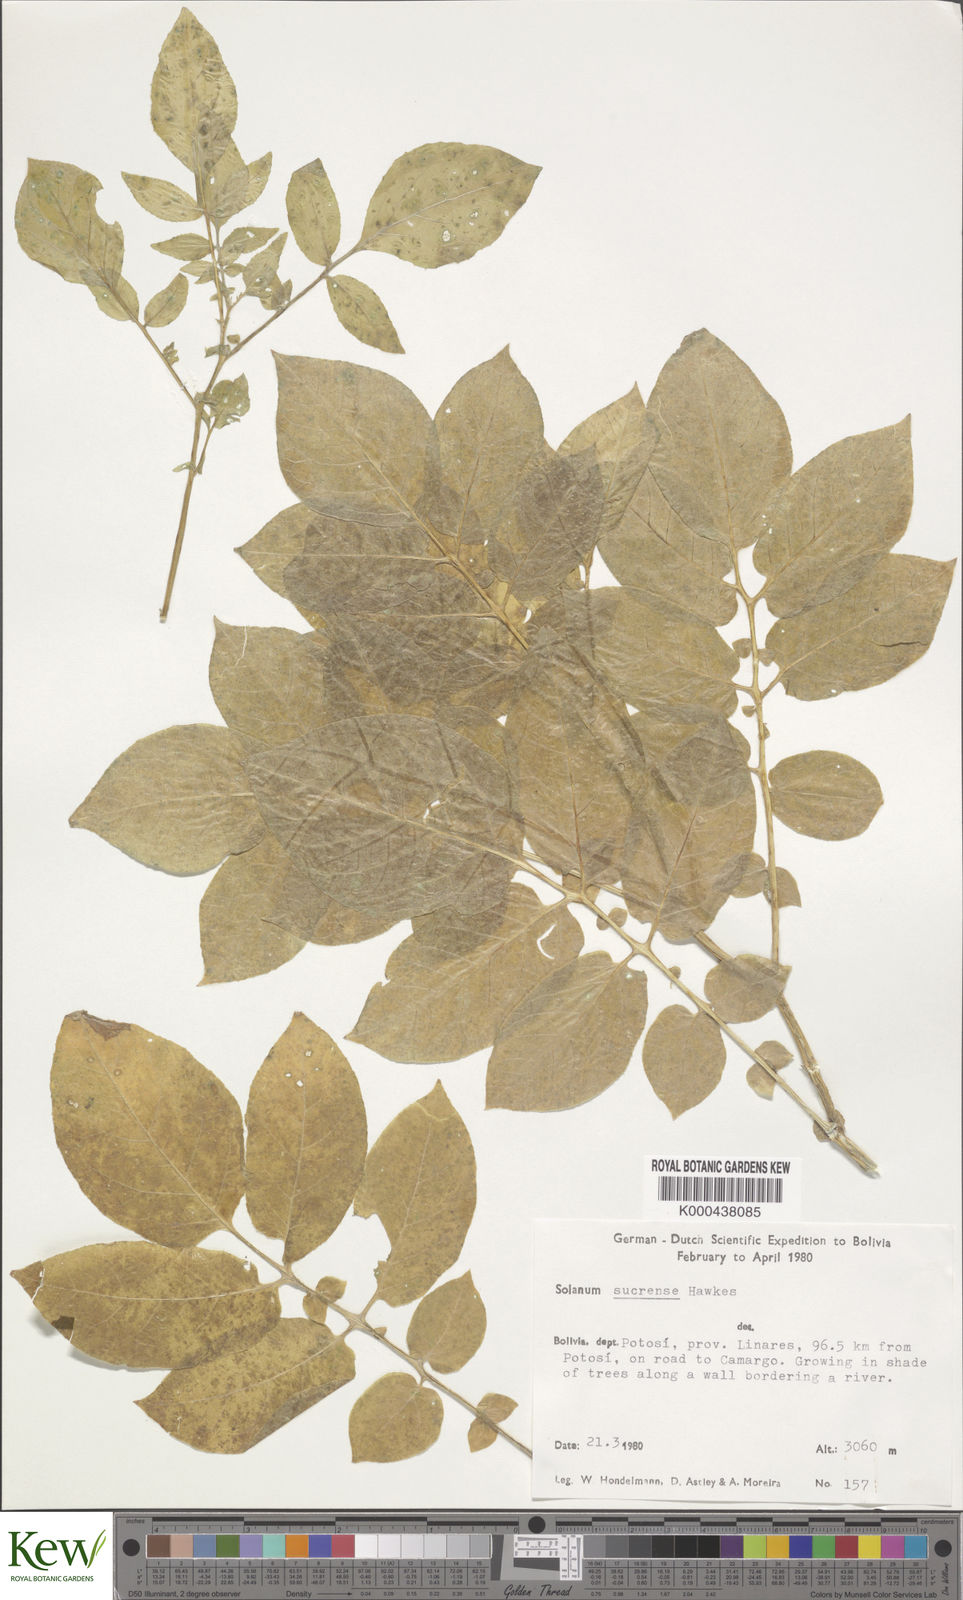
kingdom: Plantae
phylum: Tracheophyta
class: Magnoliopsida
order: Solanales
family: Solanaceae
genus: Solanum
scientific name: Solanum brevicaule
